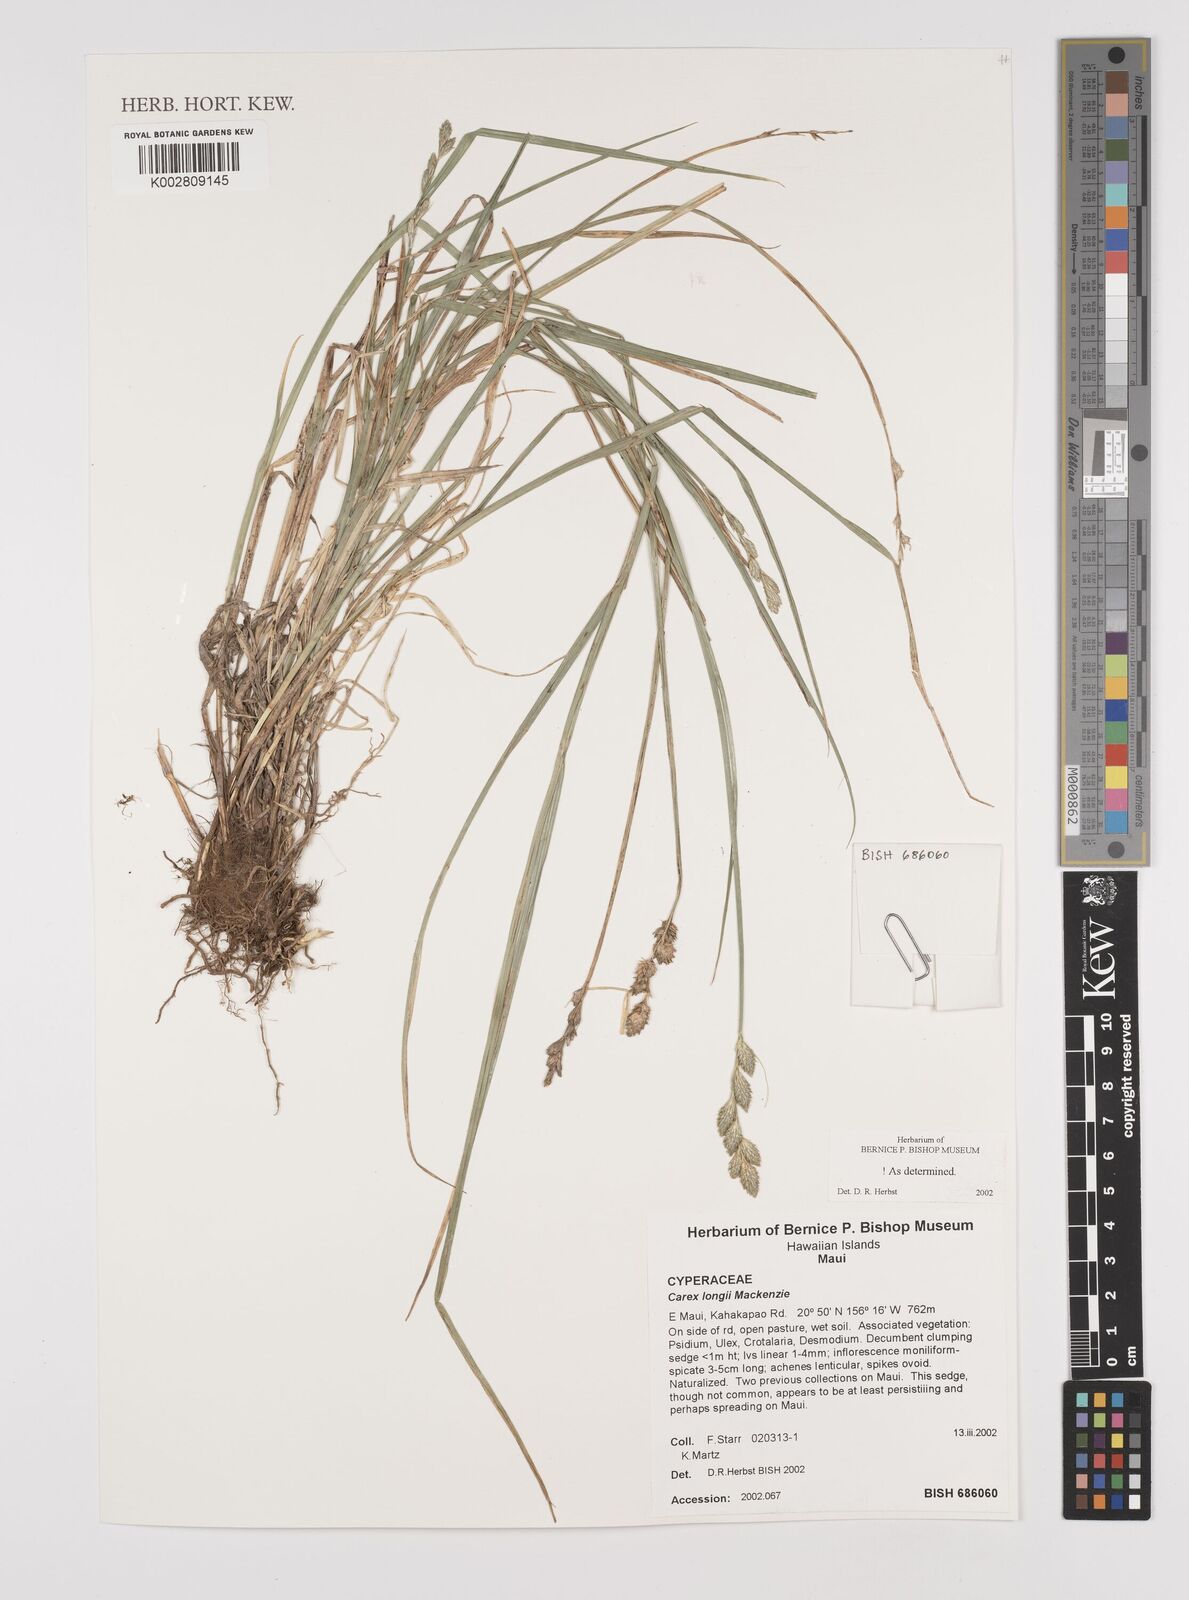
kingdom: Plantae
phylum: Tracheophyta
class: Liliopsida
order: Poales
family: Cyperaceae
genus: Carex
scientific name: Carex longii
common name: Long's sedge
